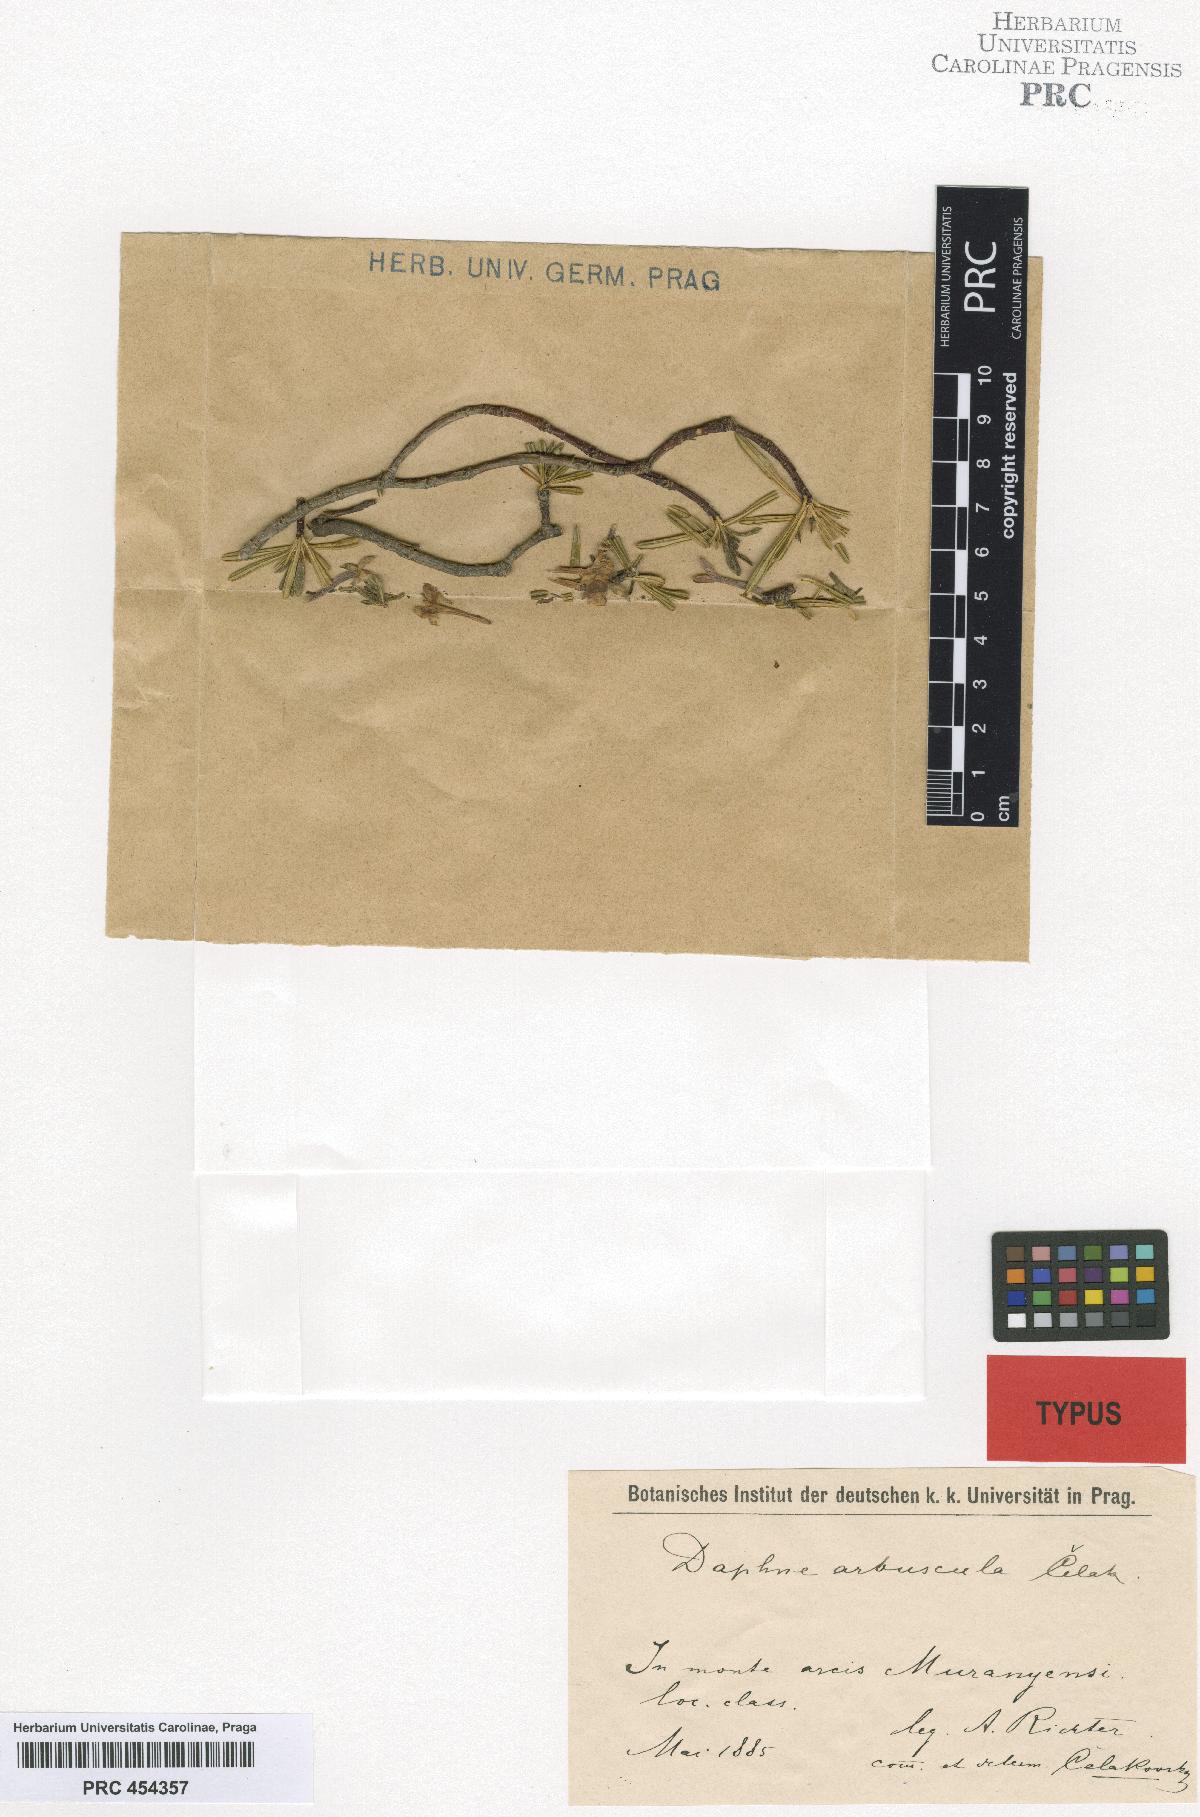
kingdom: Plantae
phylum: Tracheophyta
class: Magnoliopsida
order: Malvales
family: Thymelaeaceae
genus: Daphne
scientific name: Daphne arbuscula
